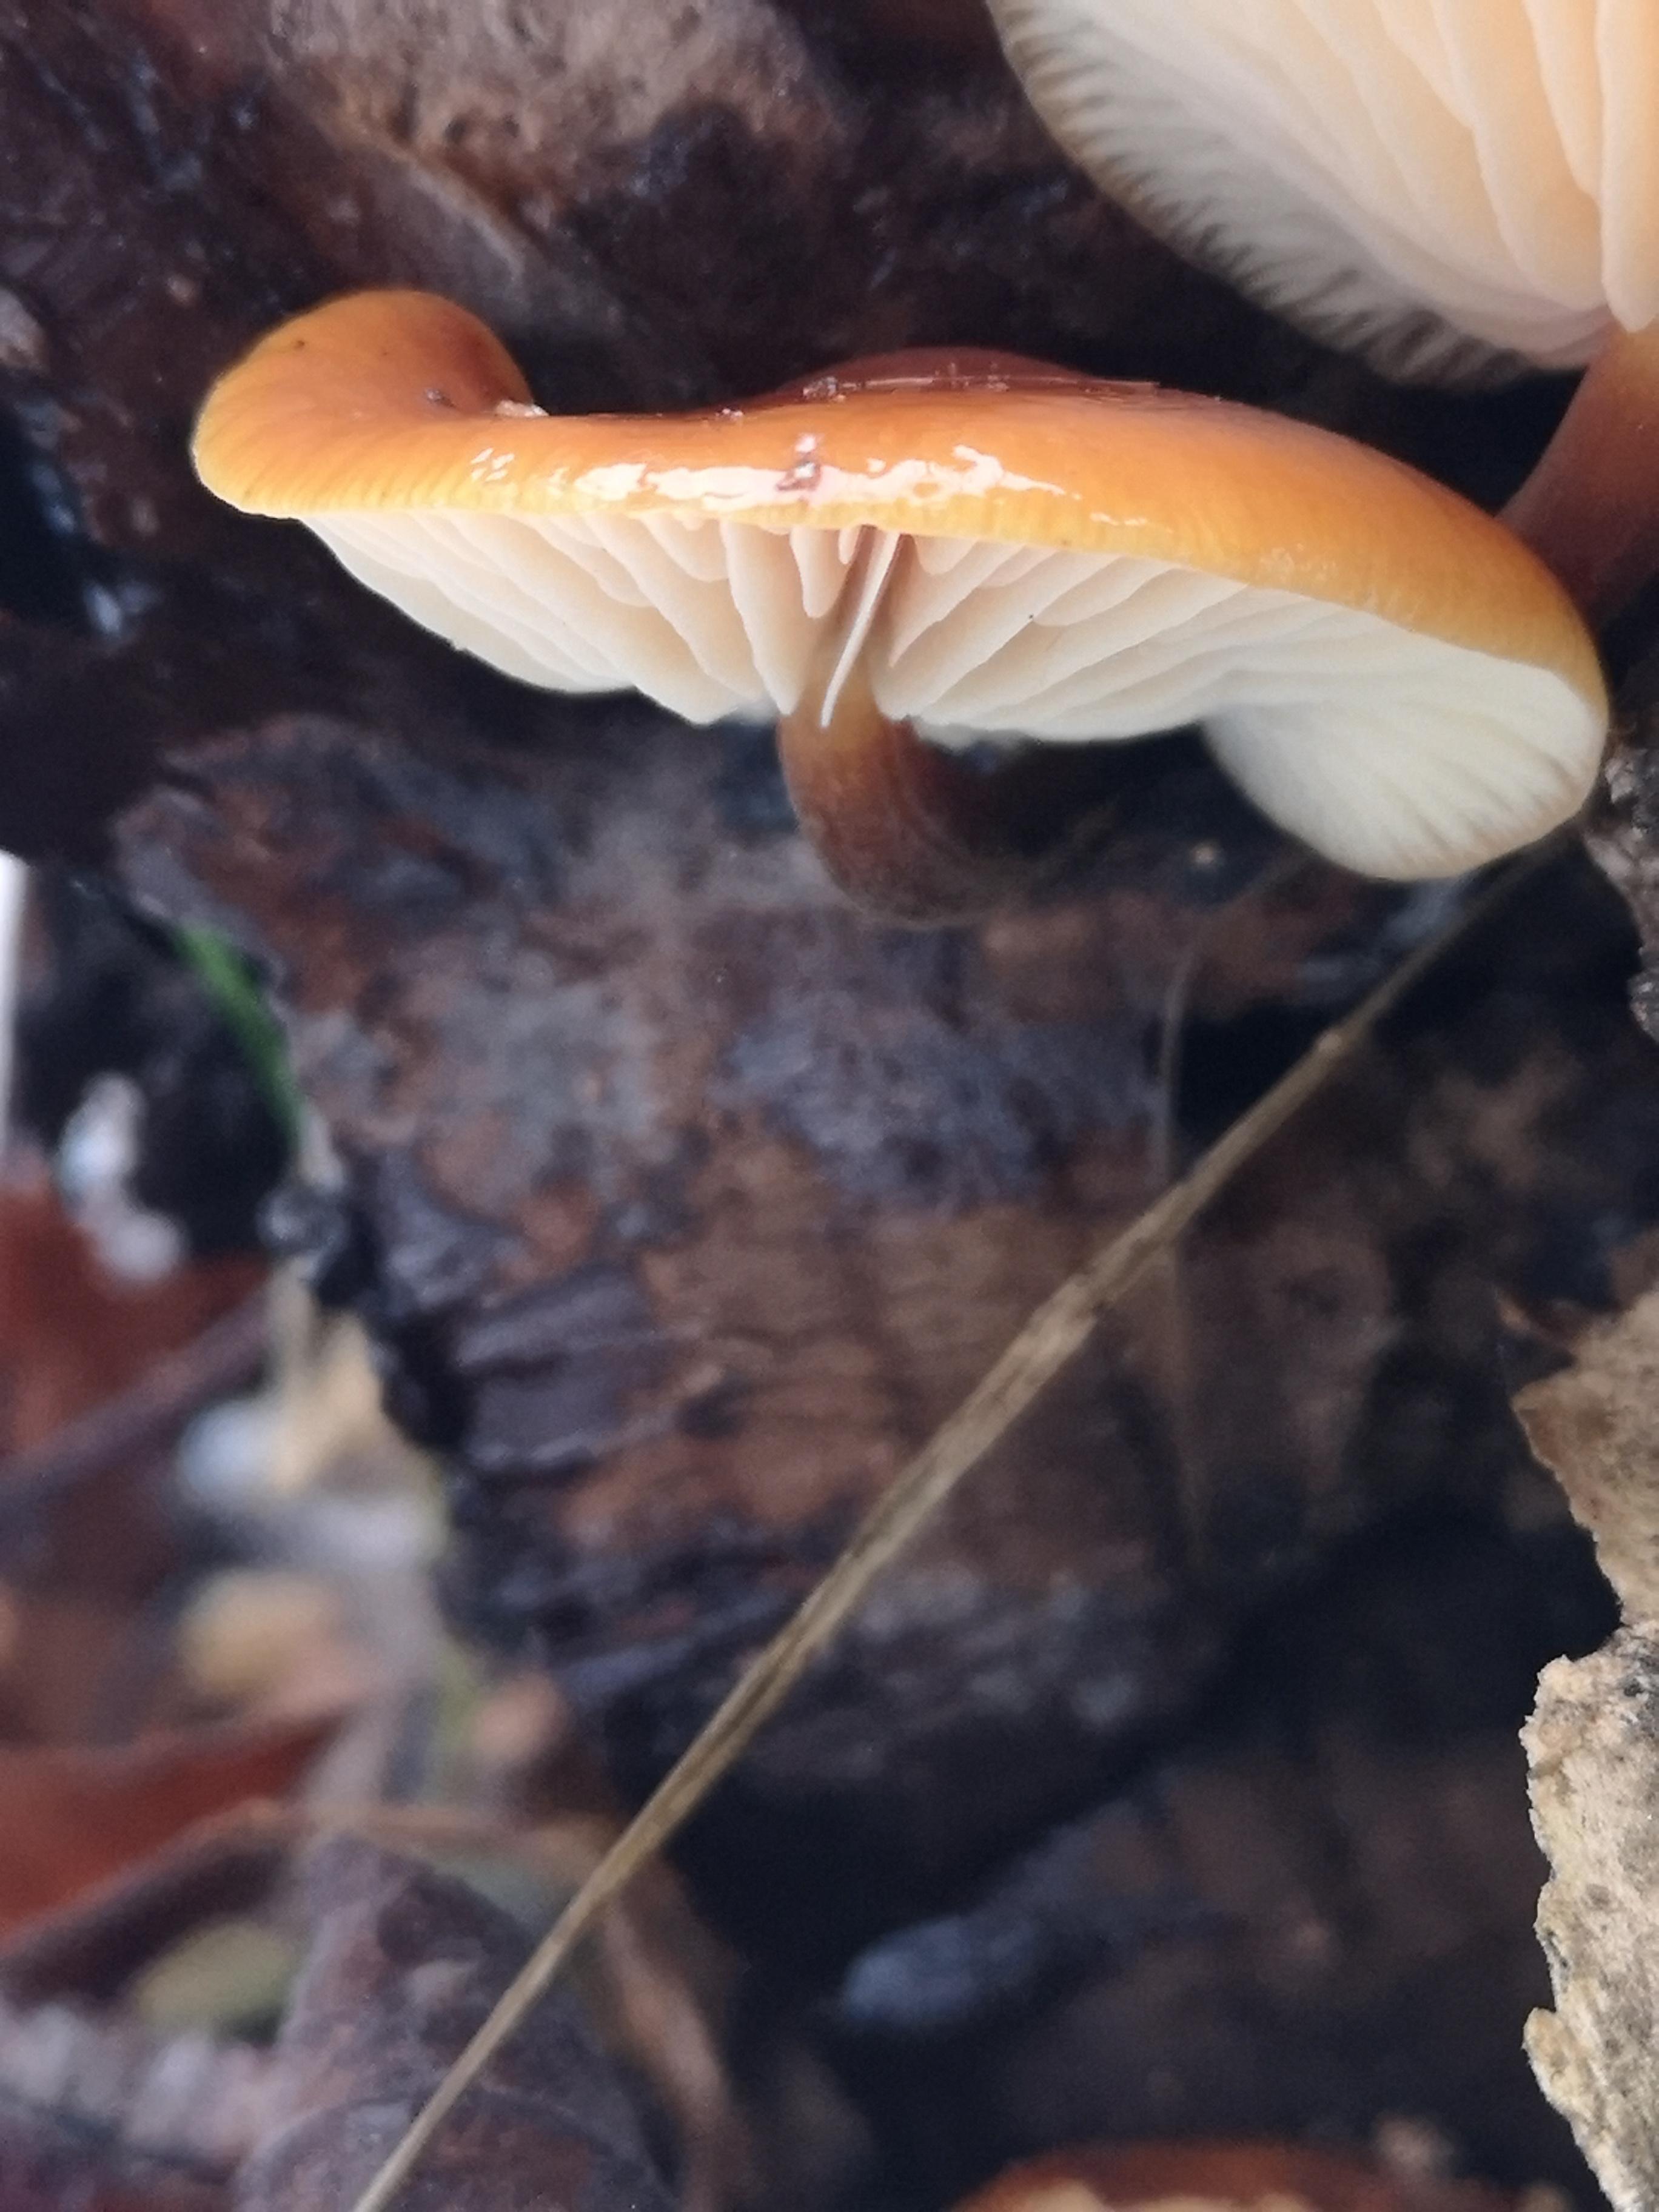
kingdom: Fungi
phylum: Basidiomycota
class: Agaricomycetes
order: Agaricales
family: Physalacriaceae
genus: Flammulina
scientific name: Flammulina
